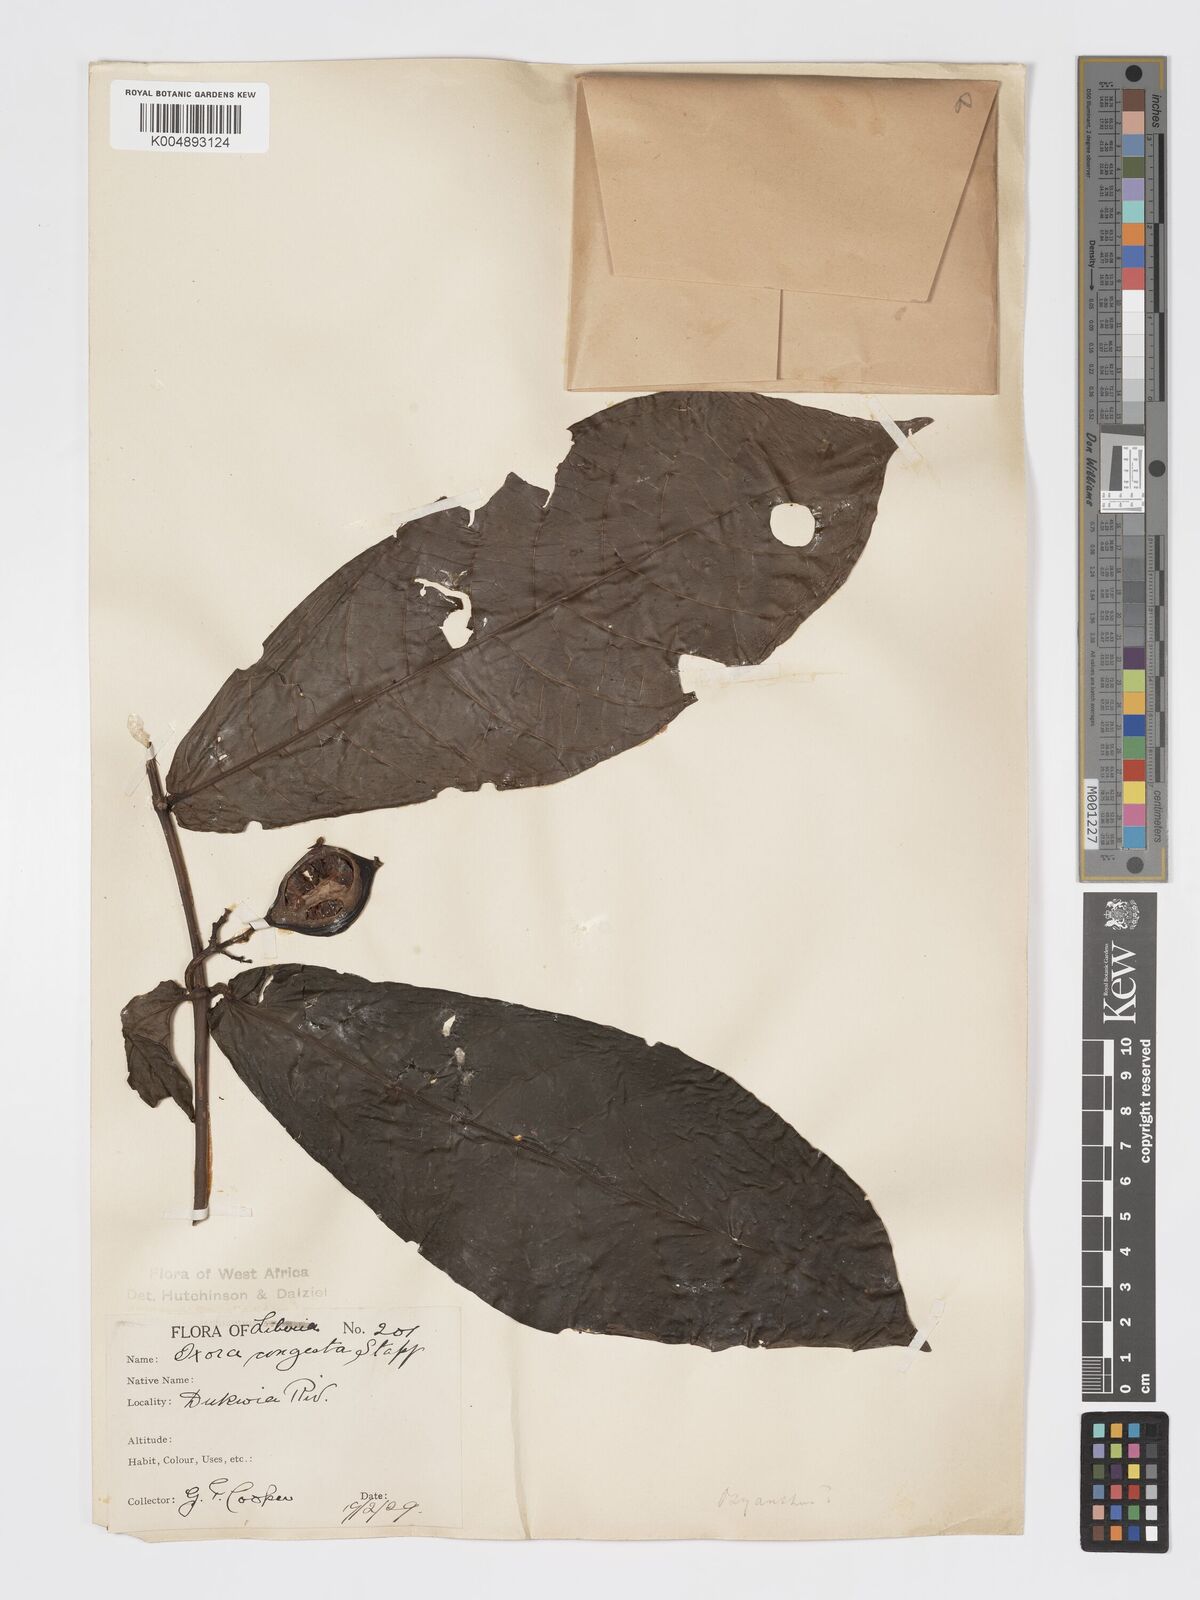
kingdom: Plantae
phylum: Tracheophyta
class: Magnoliopsida
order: Gentianales
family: Rubiaceae
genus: Massularia
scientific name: Massularia acuminata
